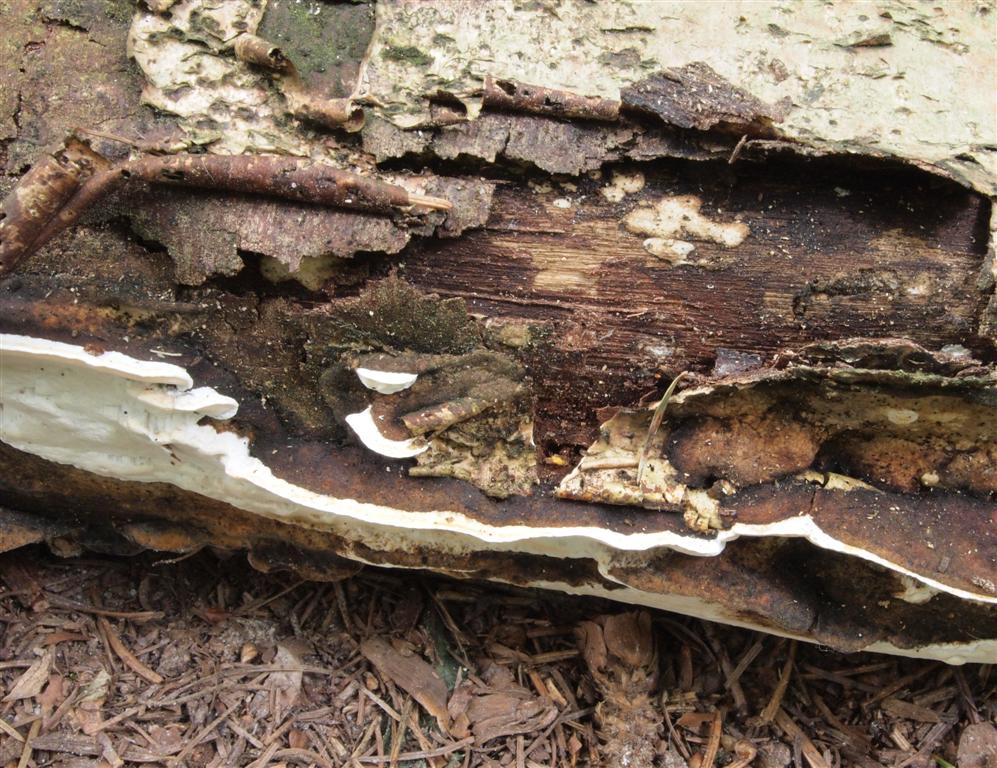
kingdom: Fungi
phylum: Basidiomycota
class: Agaricomycetes
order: Polyporales
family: Incrustoporiaceae
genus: Skeletocutis
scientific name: Skeletocutis nemoralis
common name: stor krystalporesvamp
